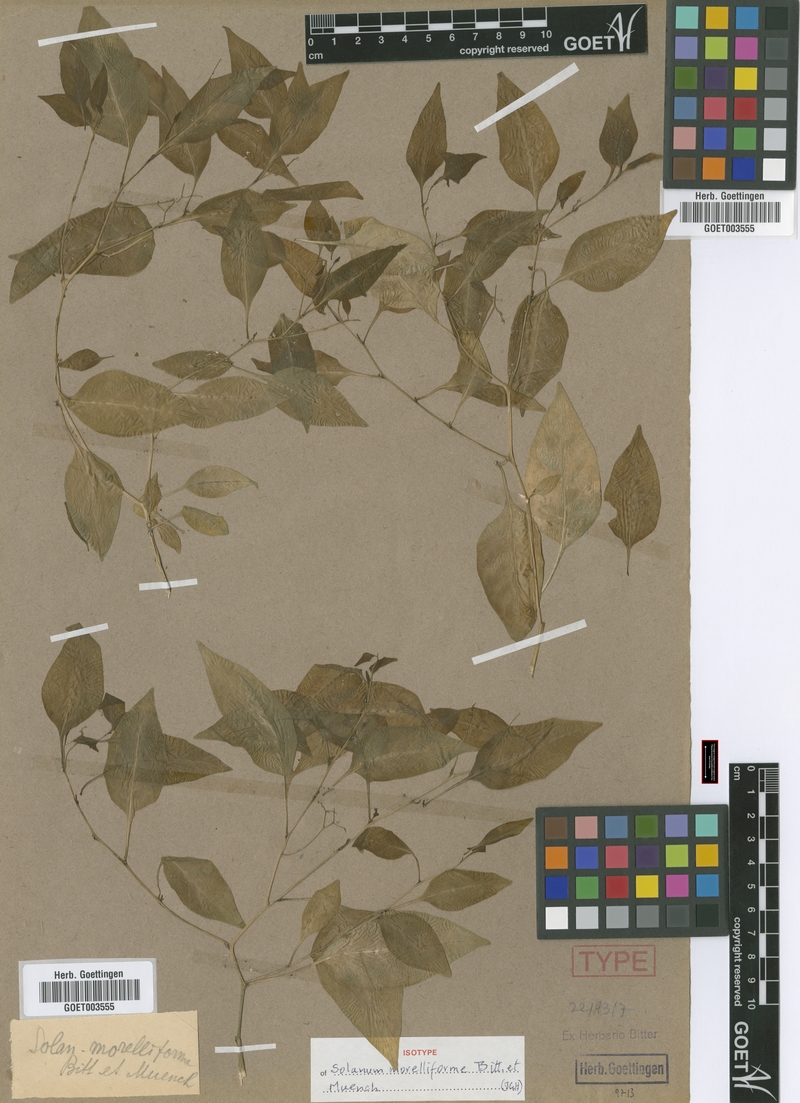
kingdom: Plantae
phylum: Tracheophyta
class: Magnoliopsida
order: Solanales
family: Solanaceae
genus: Solanum
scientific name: Solanum morelliforme
